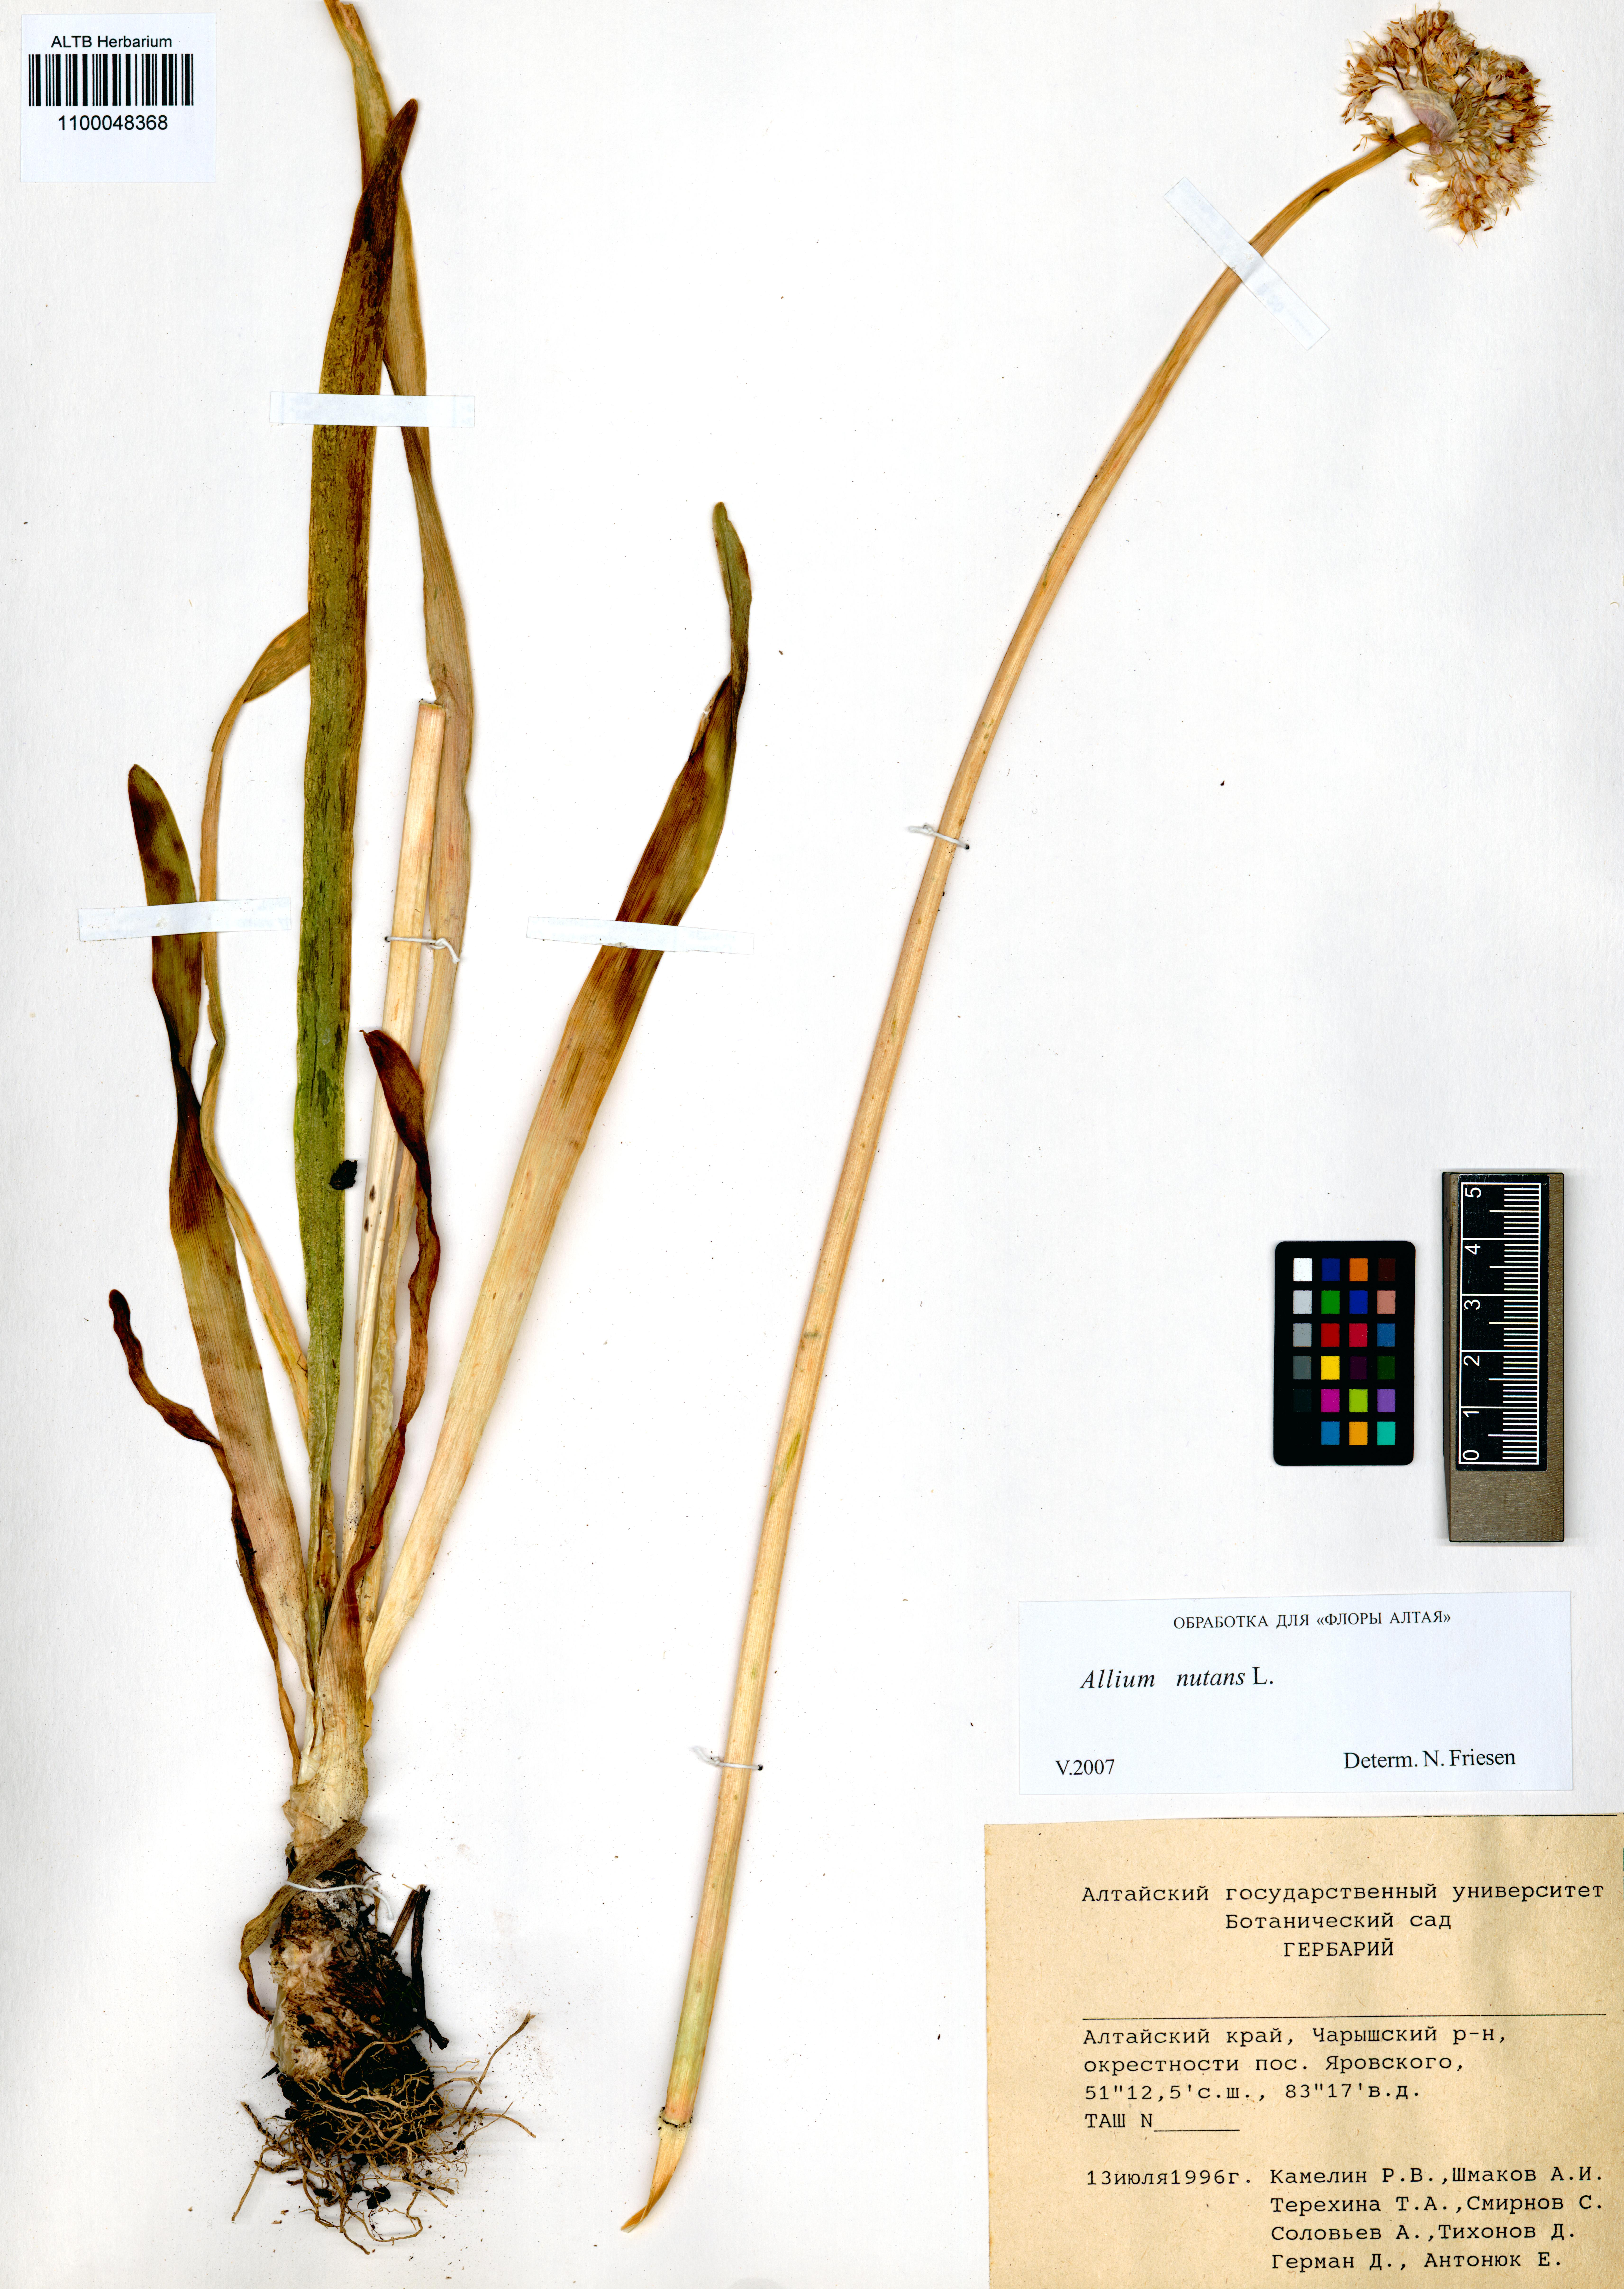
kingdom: Plantae
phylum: Tracheophyta
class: Liliopsida
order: Asparagales
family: Amaryllidaceae
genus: Allium
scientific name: Allium nutans
